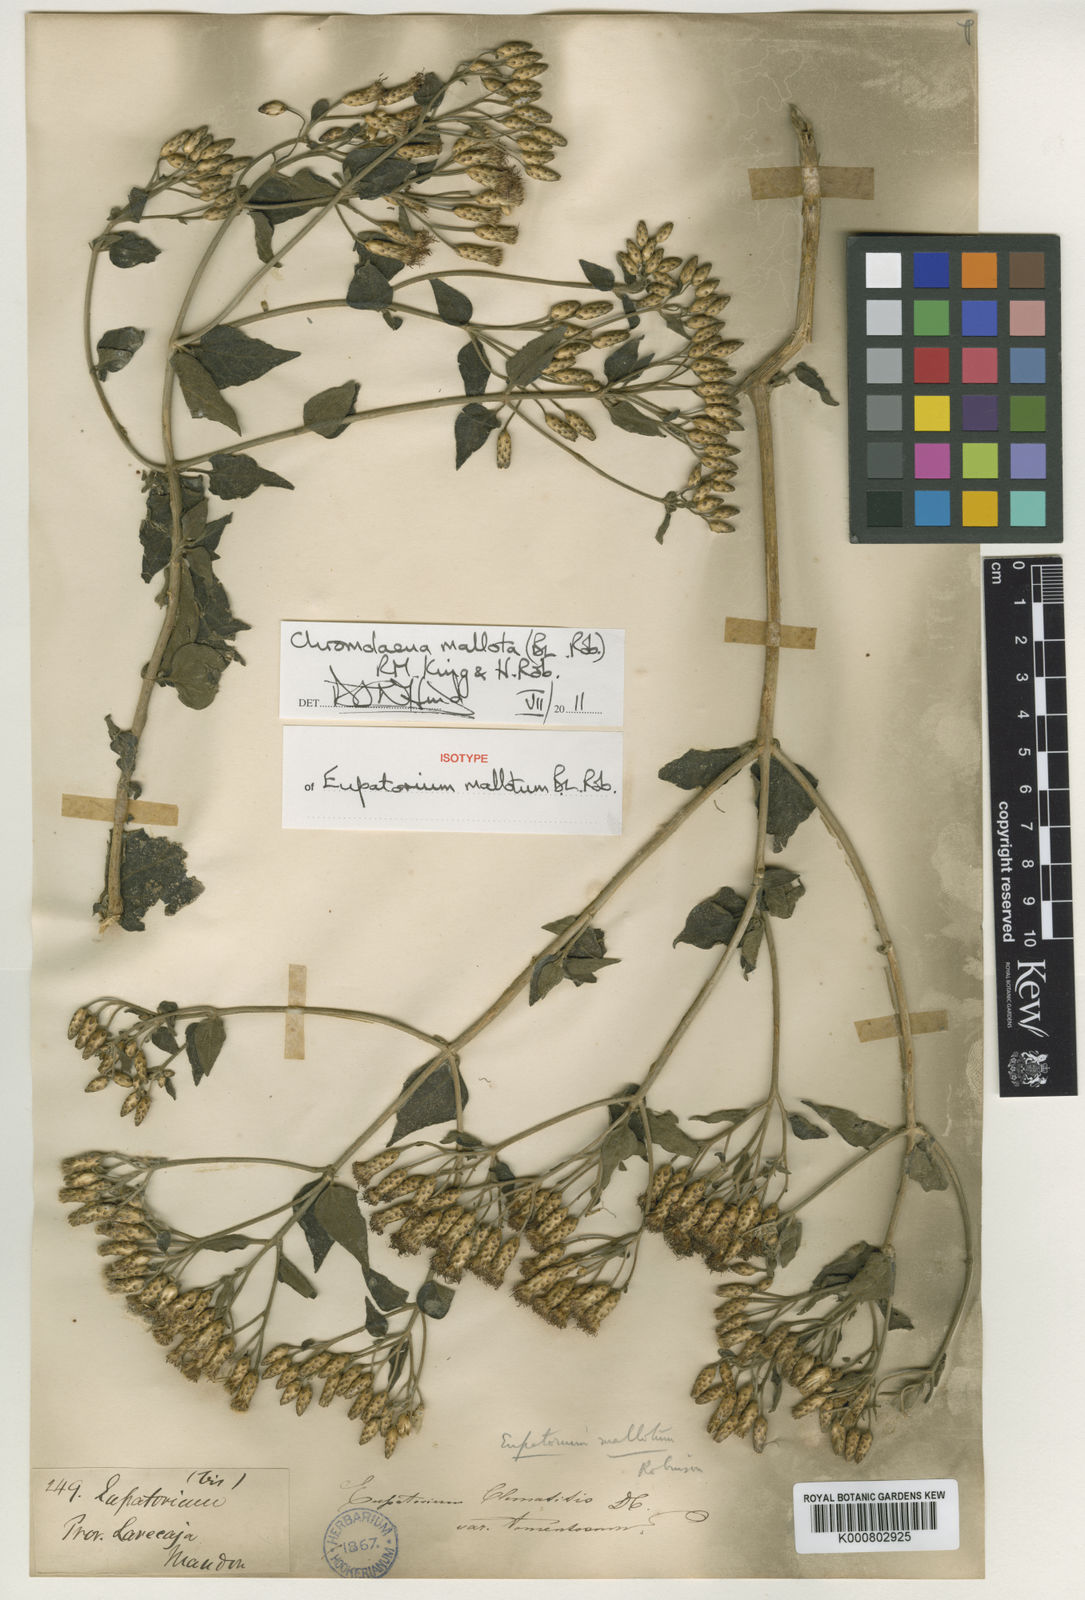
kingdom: Plantae
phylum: Tracheophyta
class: Magnoliopsida
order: Asterales
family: Asteraceae
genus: Chromolaena
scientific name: Chromolaena mallota
